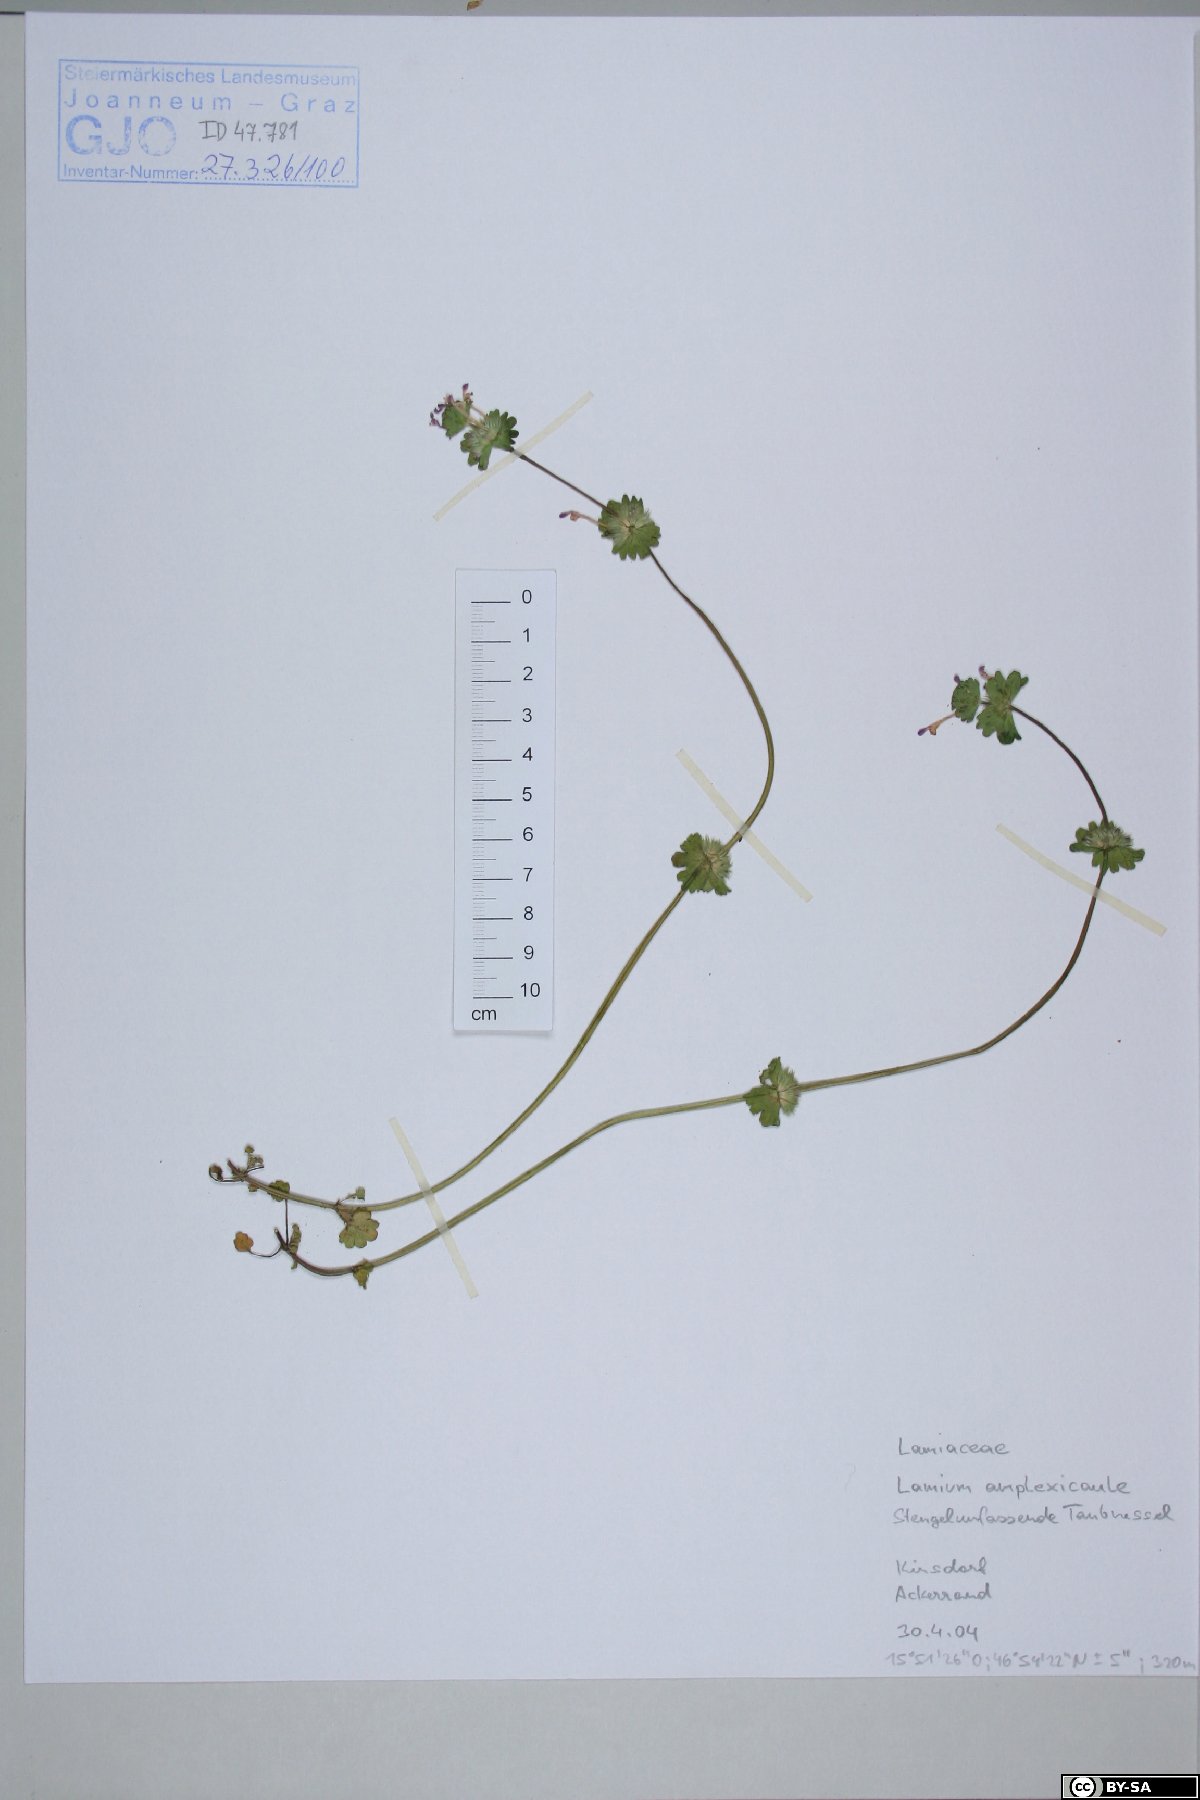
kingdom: Plantae
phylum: Tracheophyta
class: Magnoliopsida
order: Lamiales
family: Lamiaceae
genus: Lamium
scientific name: Lamium amplexicaule
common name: Henbit dead-nettle
